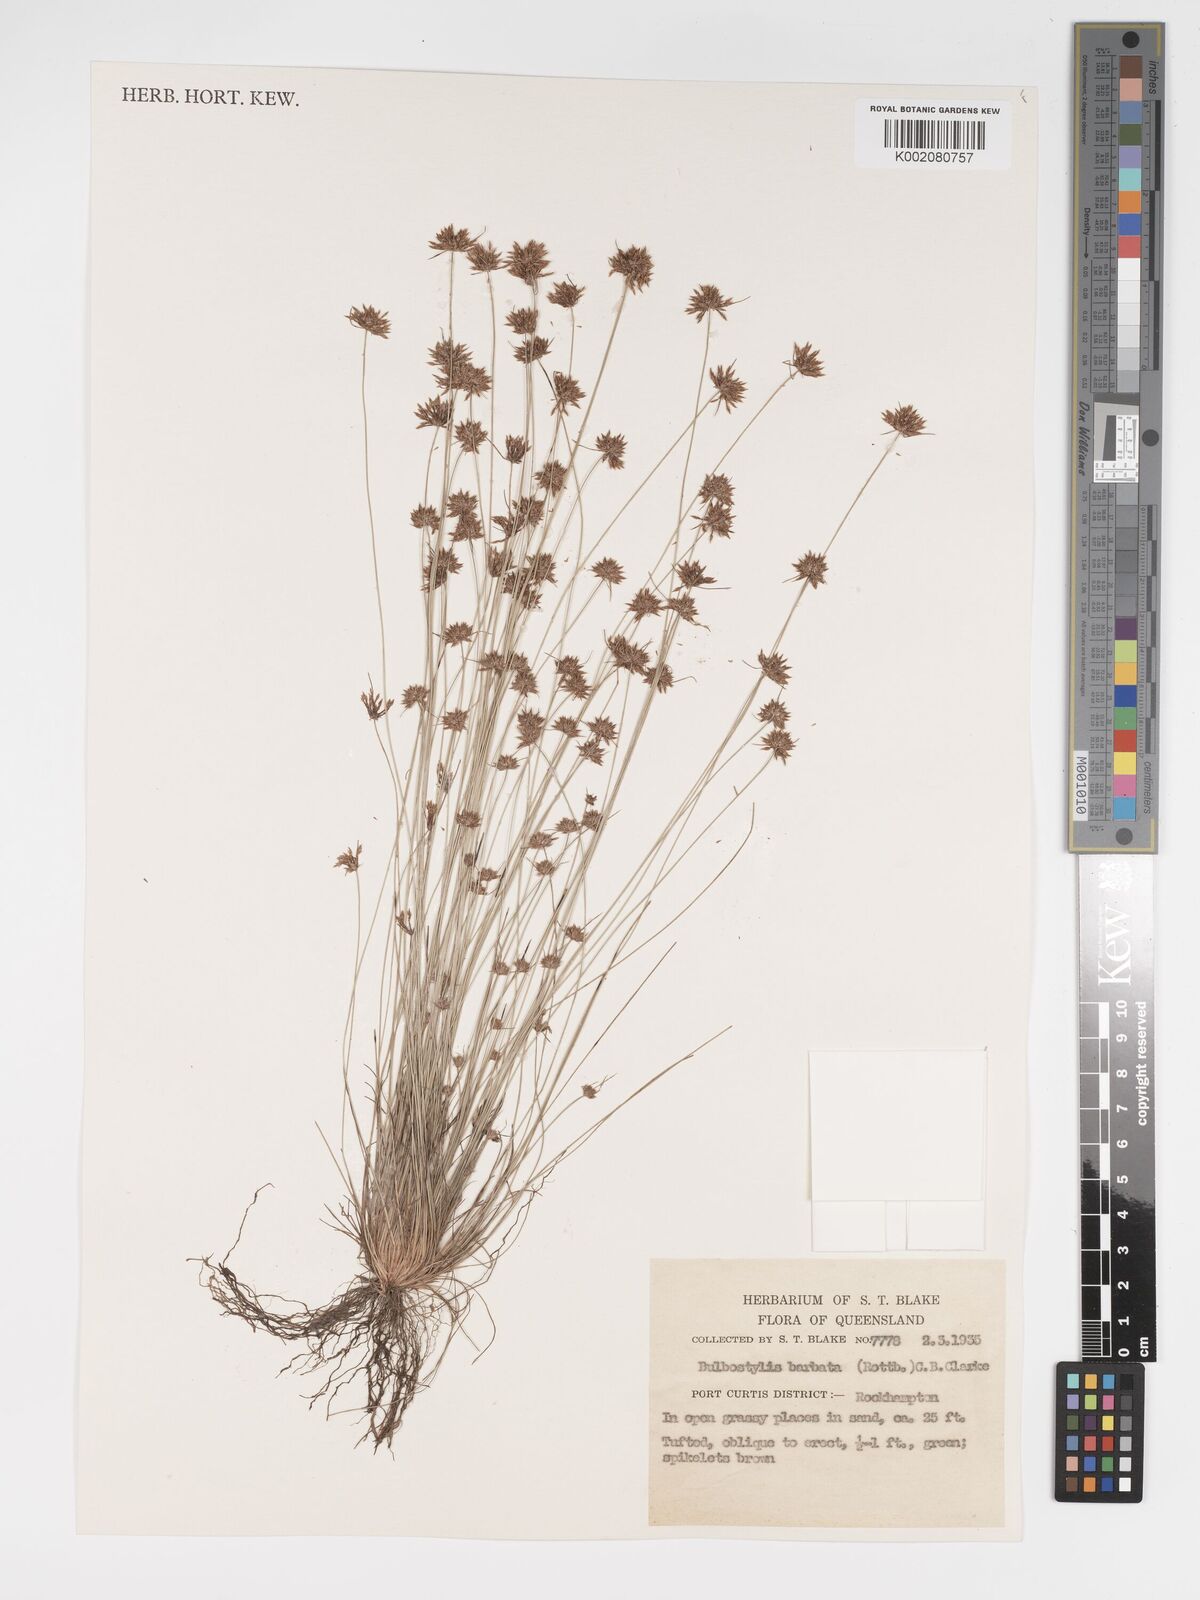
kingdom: Plantae
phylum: Tracheophyta
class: Liliopsida
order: Poales
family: Cyperaceae
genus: Bulbostylis
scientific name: Bulbostylis barbata
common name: Watergrass
